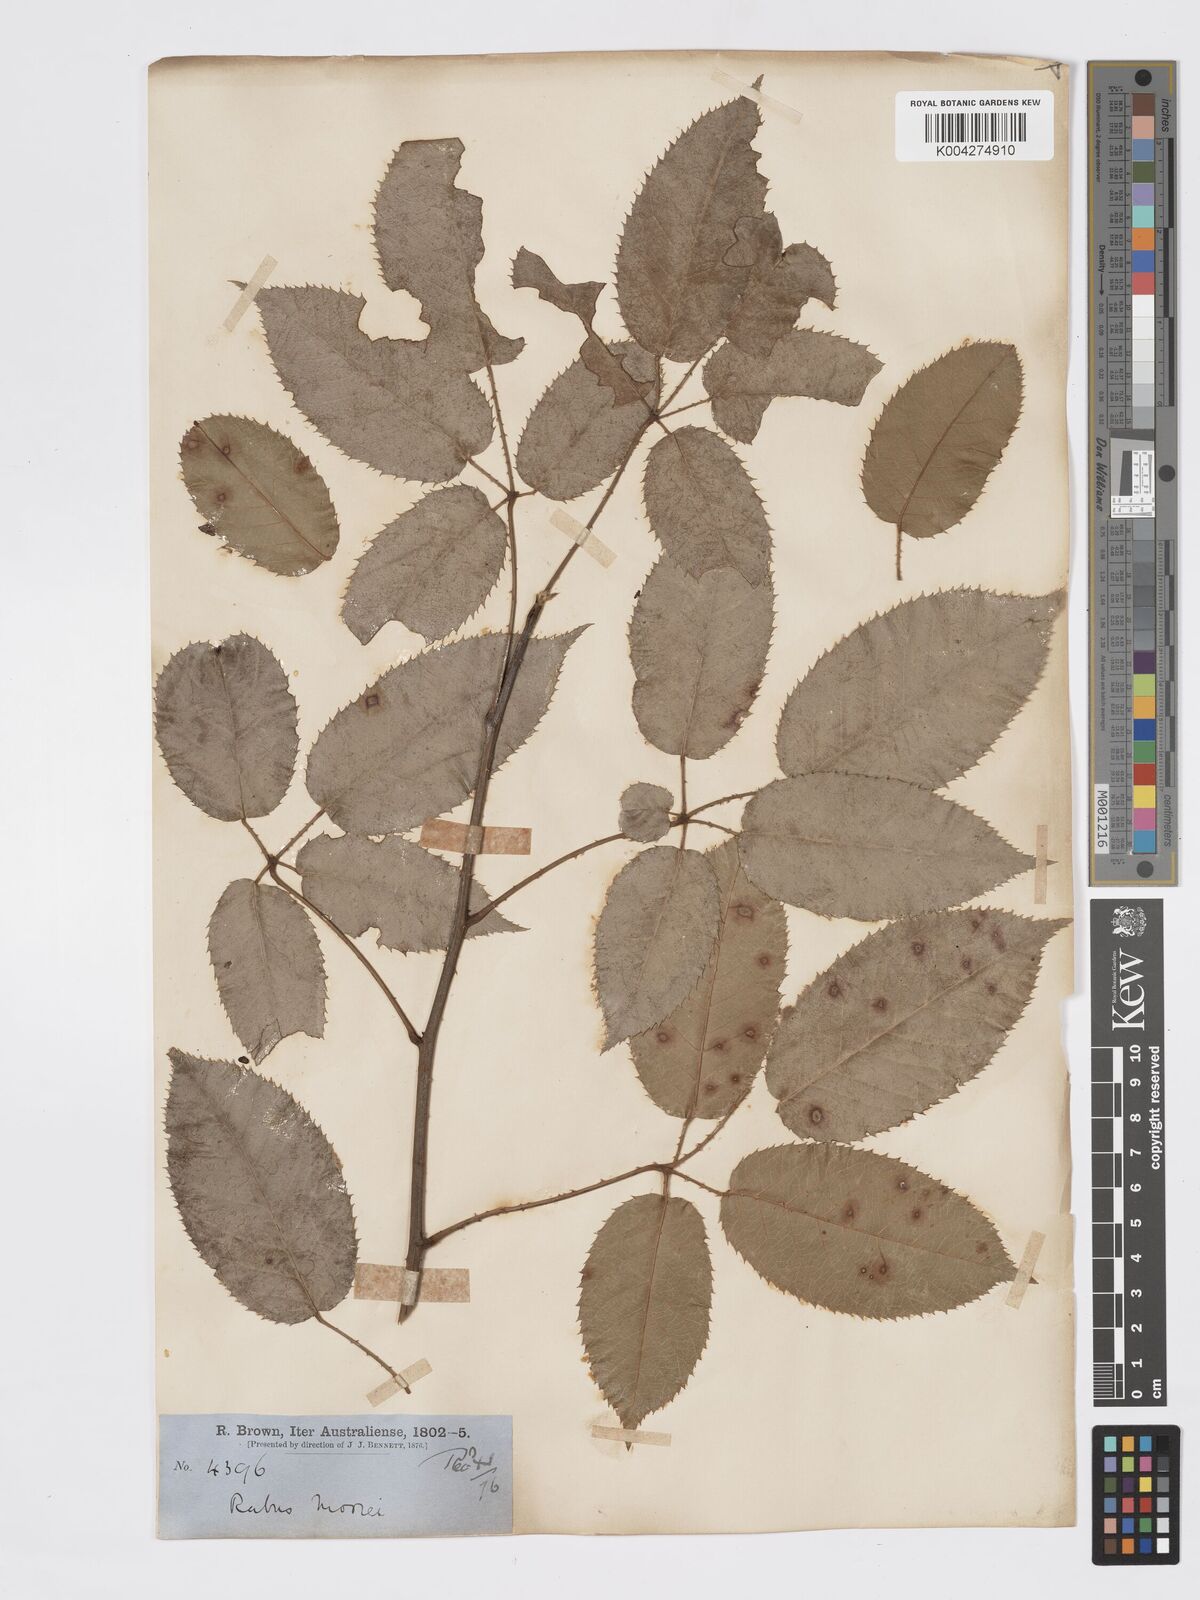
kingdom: Plantae
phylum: Tracheophyta
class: Magnoliopsida
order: Rosales
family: Rosaceae
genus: Rubus
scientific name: Rubus moorei
